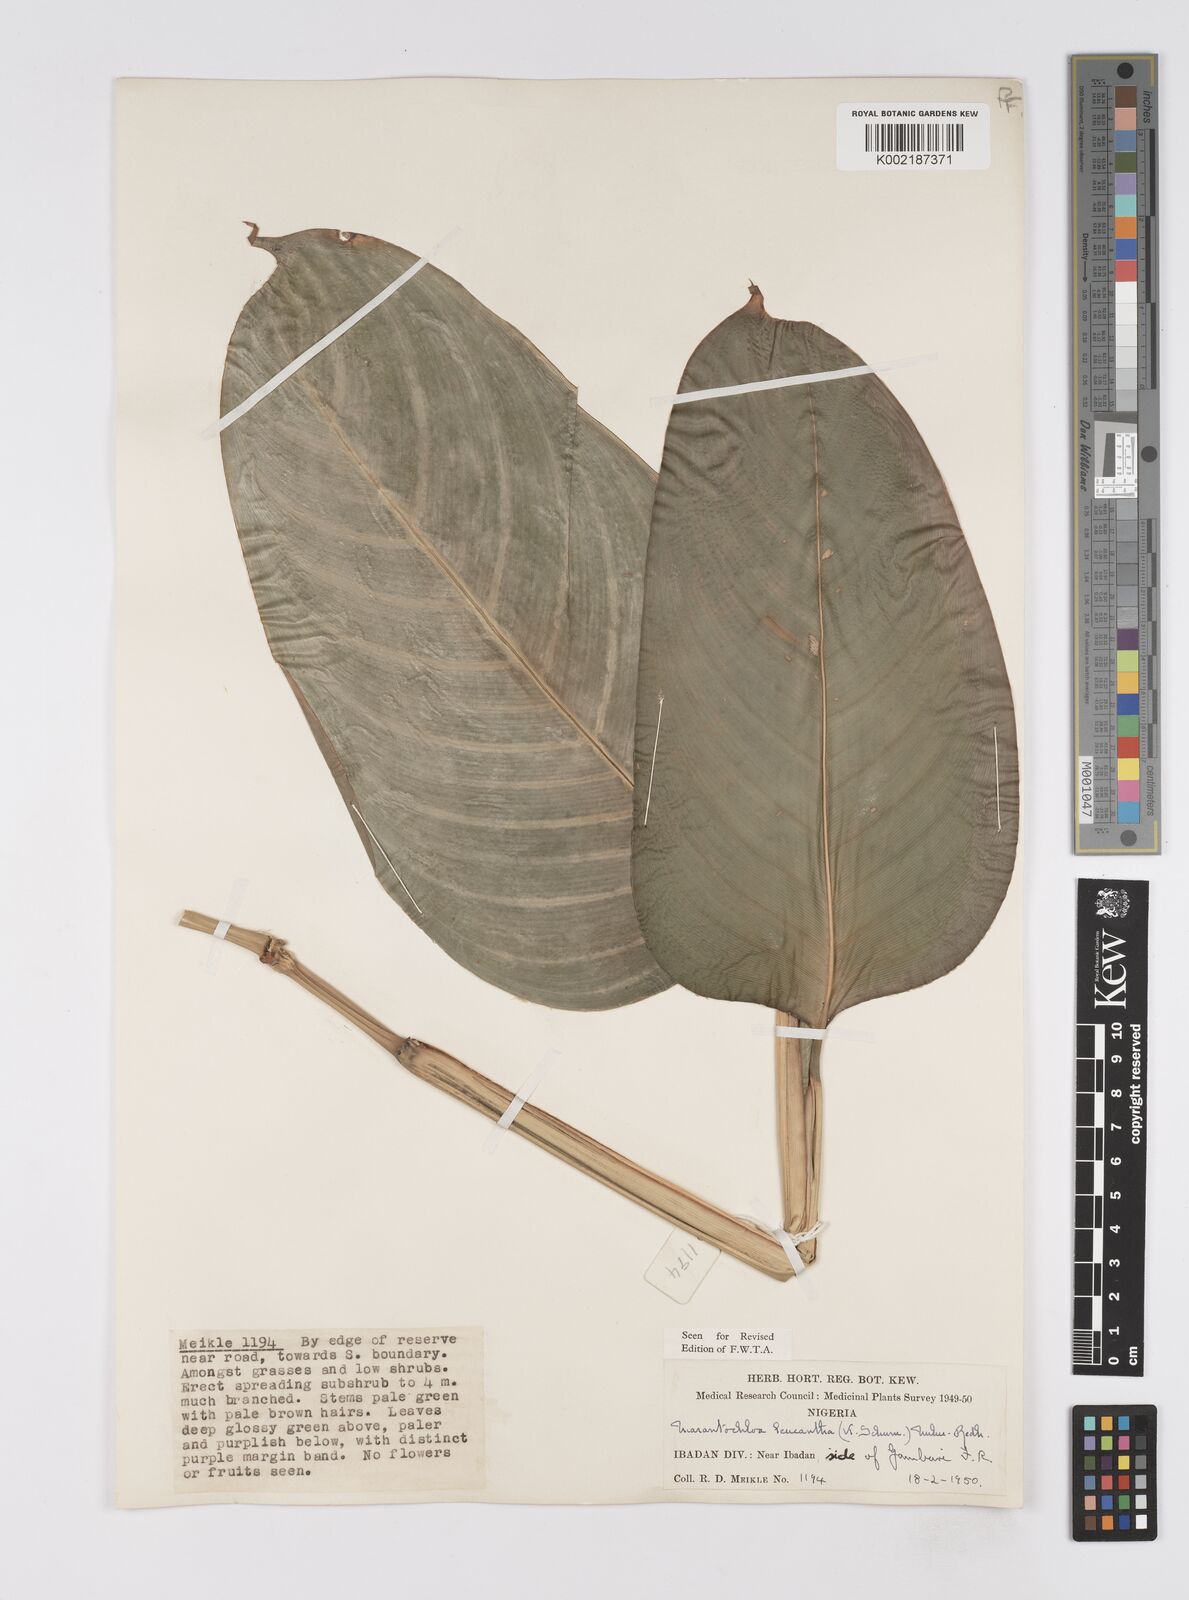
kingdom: Plantae
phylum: Tracheophyta
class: Liliopsida
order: Zingiberales
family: Marantaceae
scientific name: Marantaceae
